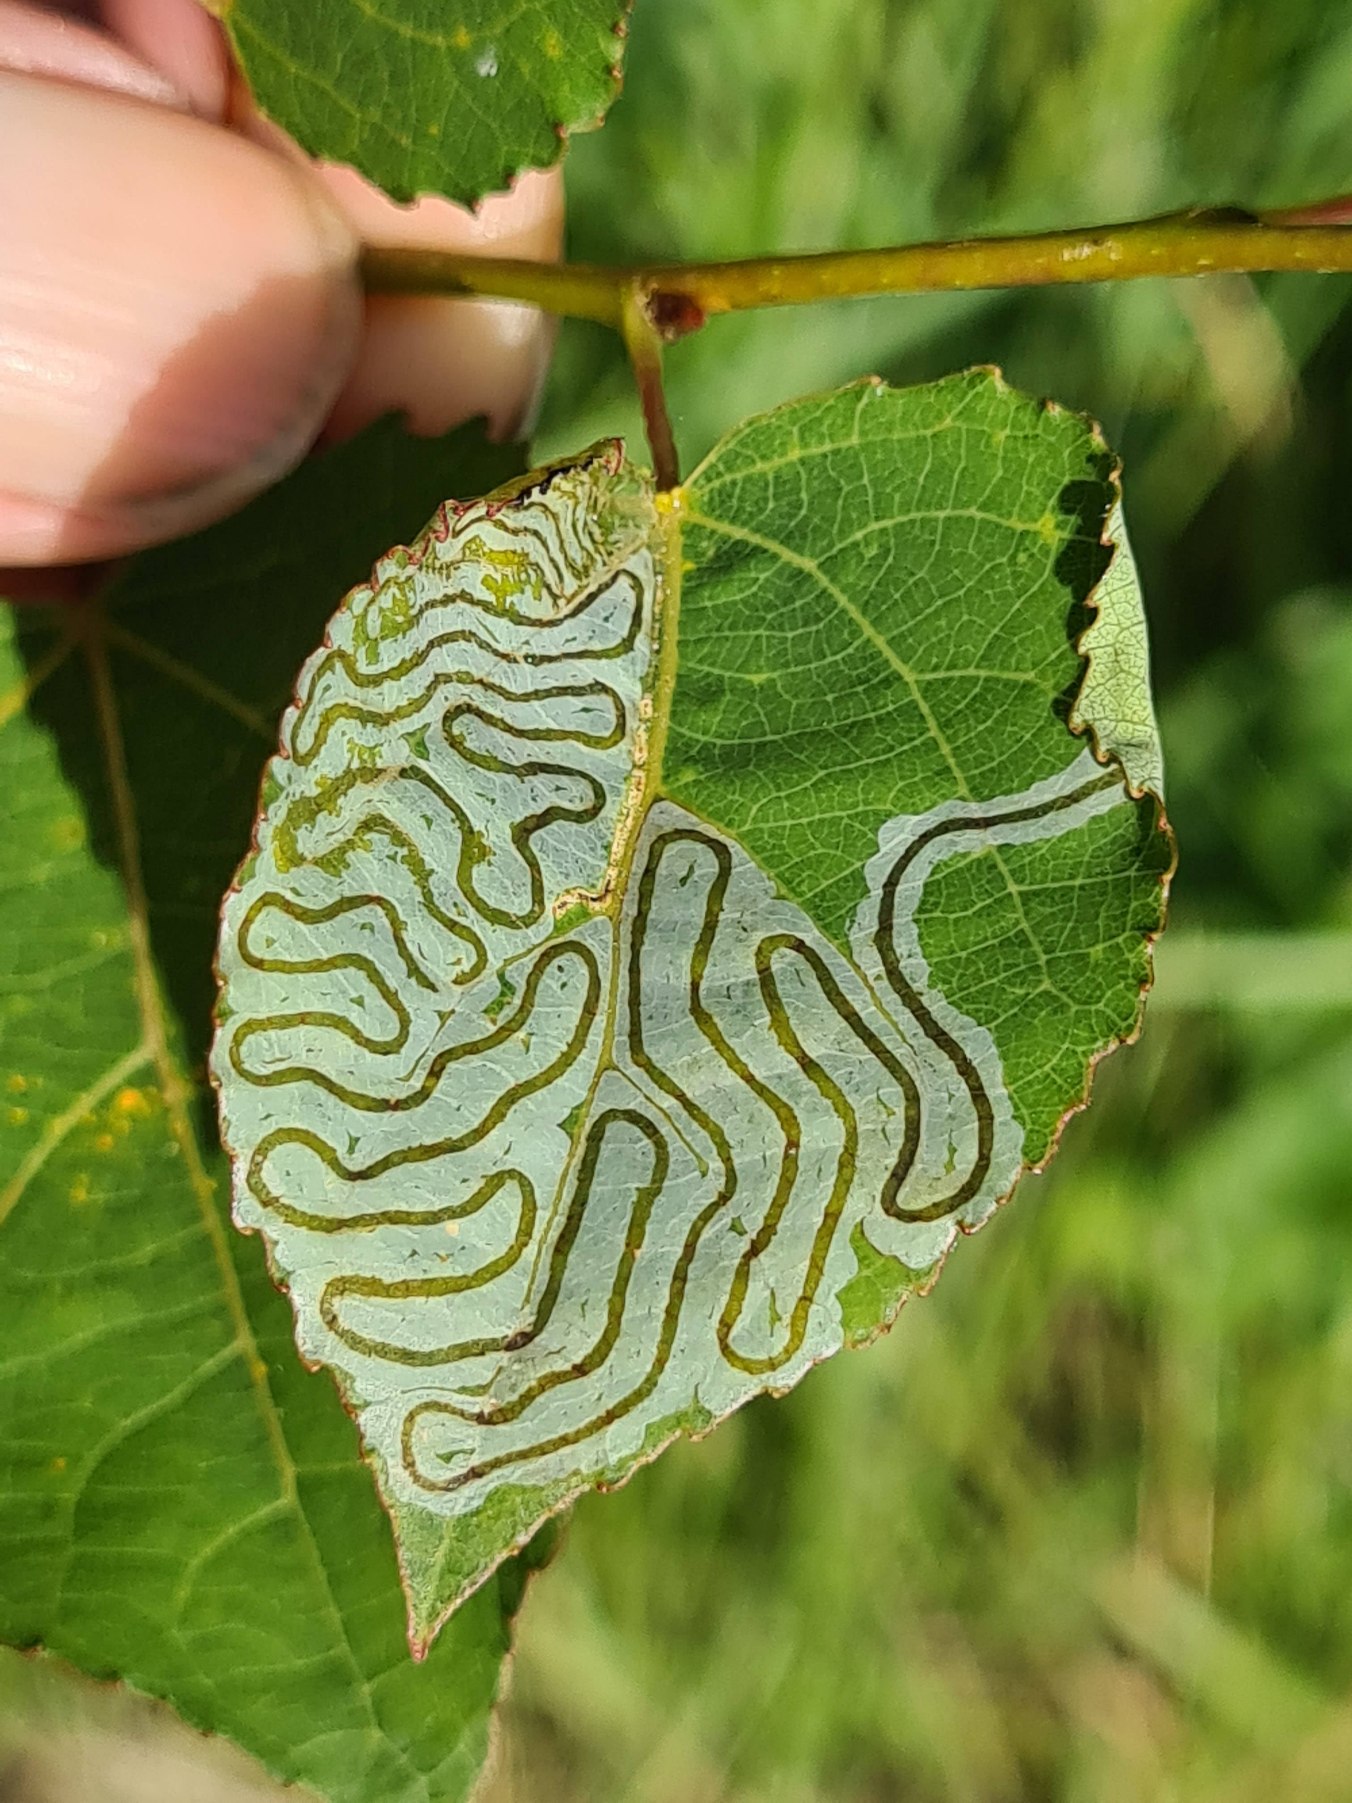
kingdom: Animalia
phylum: Arthropoda
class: Insecta
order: Lepidoptera
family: Gracillariidae
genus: Phyllocnistis
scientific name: Phyllocnistis labyrinthella
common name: Aspeminérmøl
